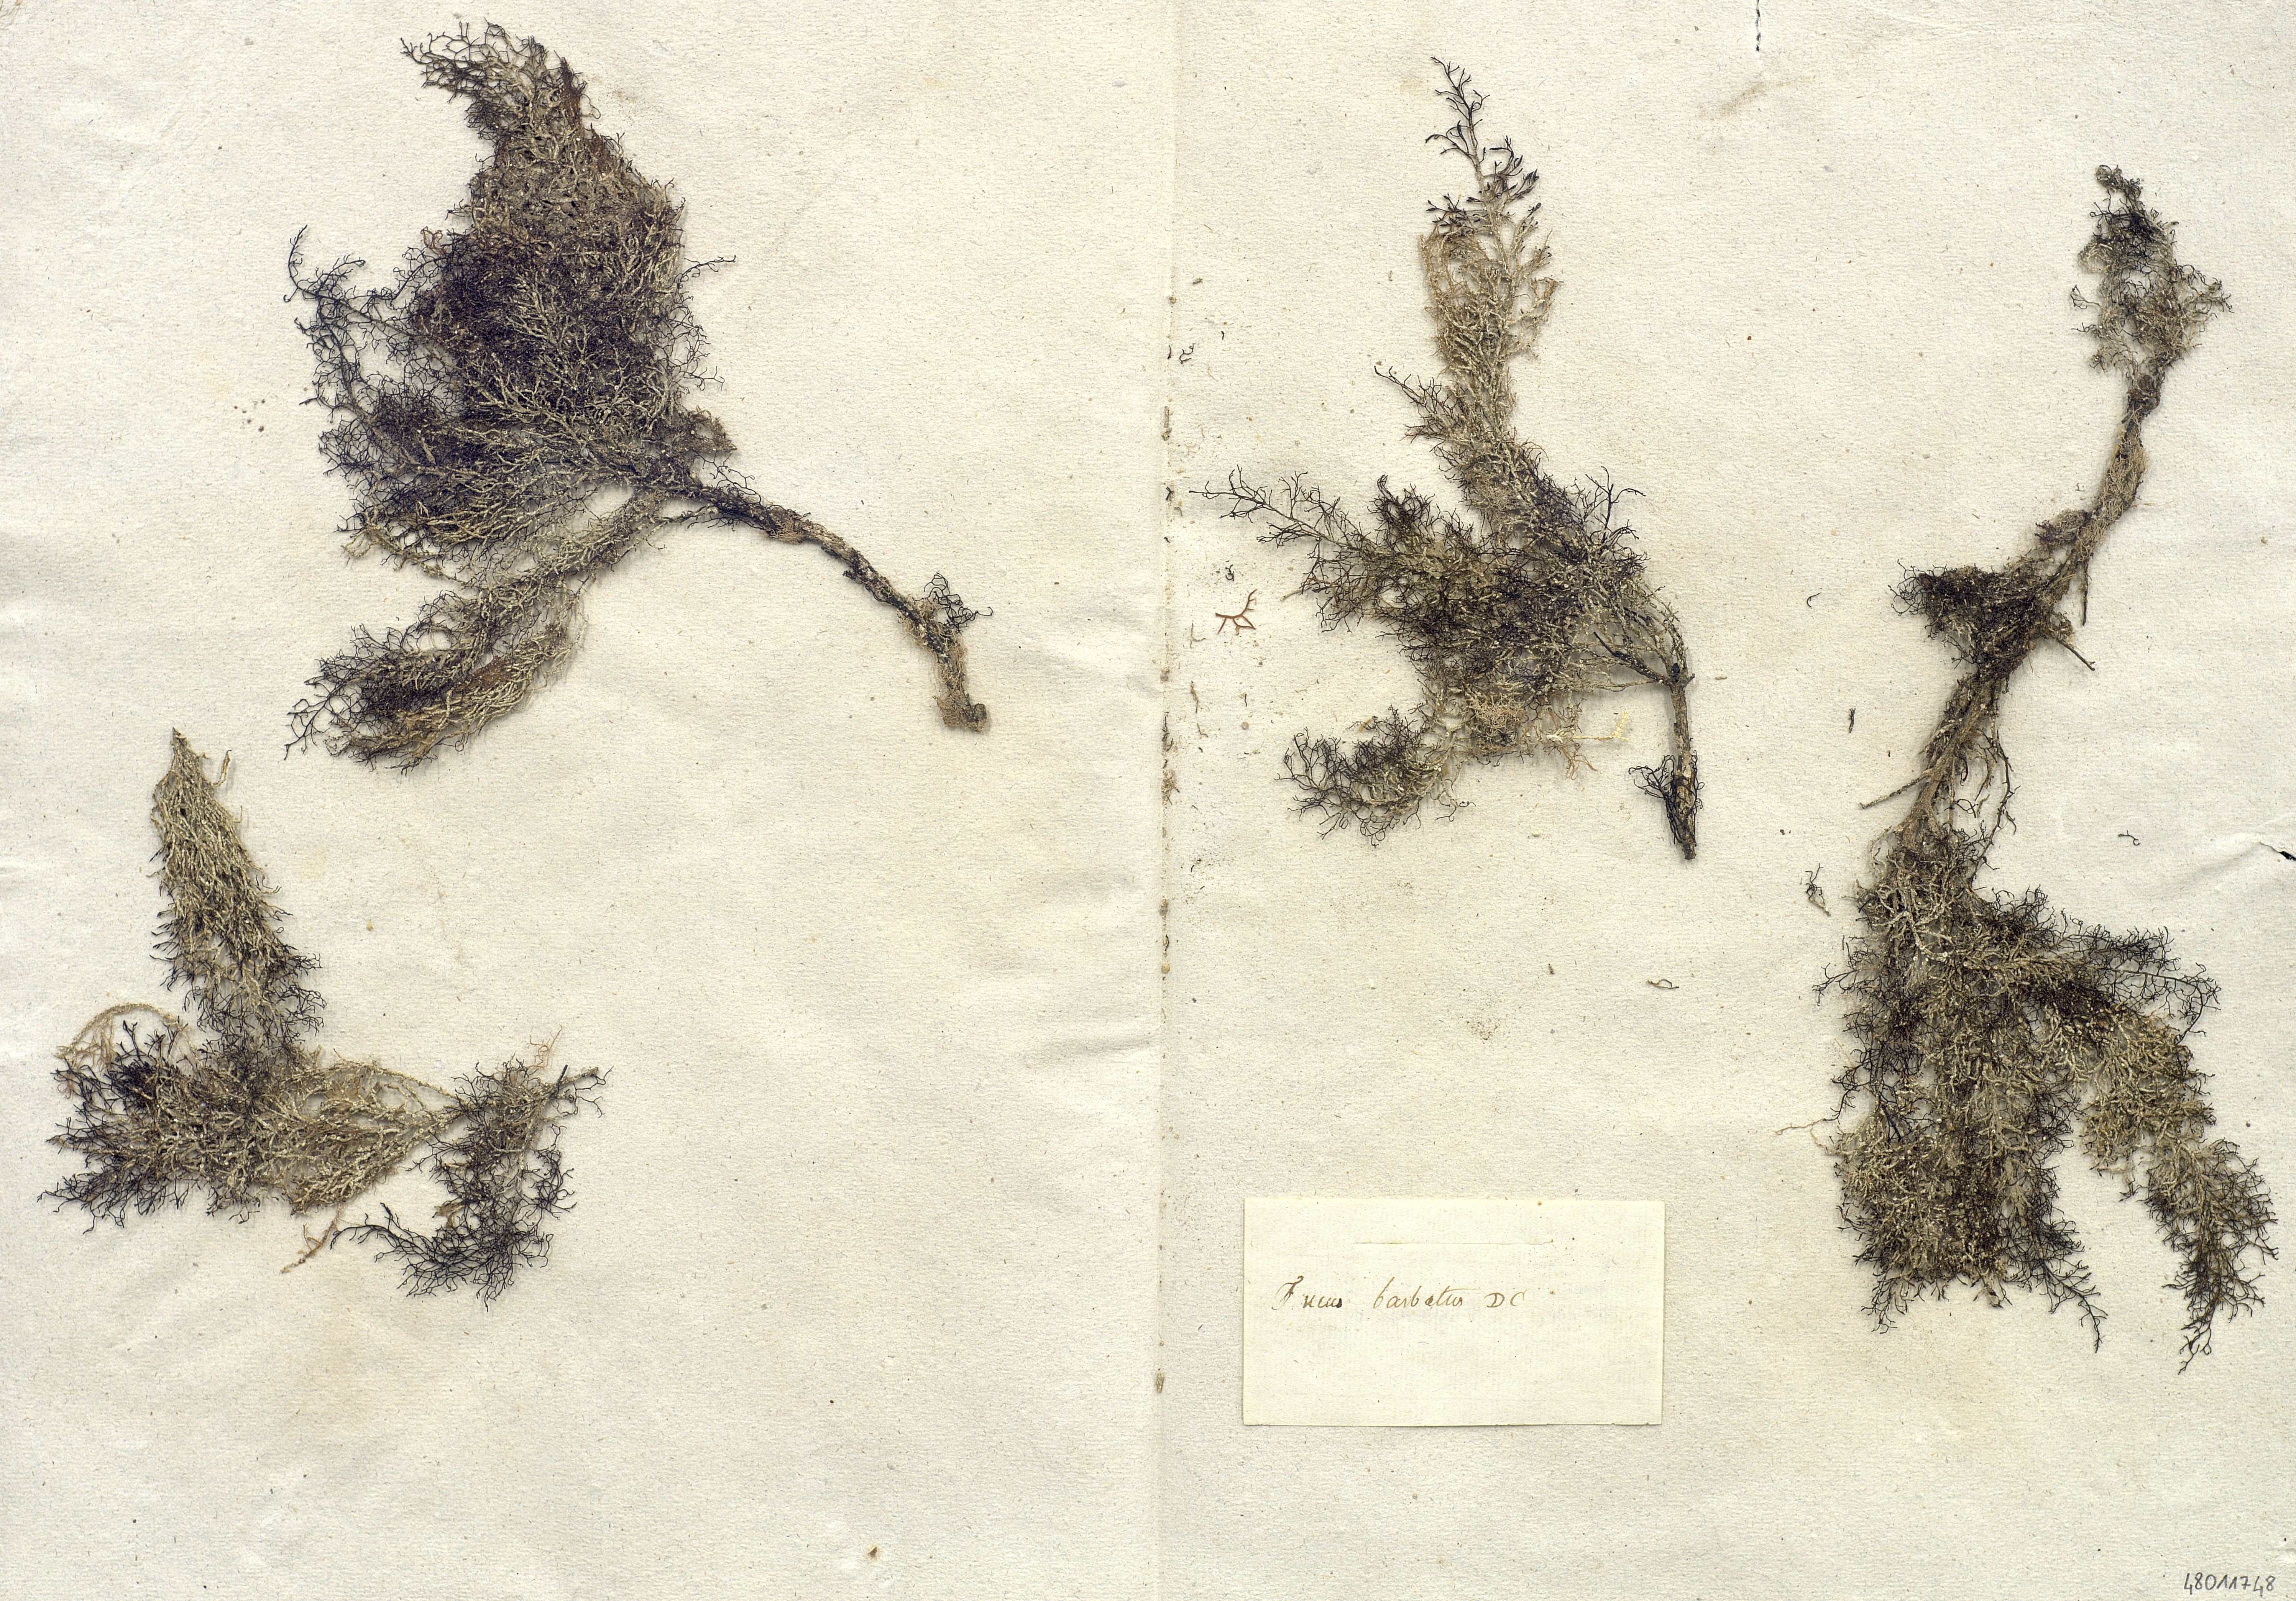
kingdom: Chromista
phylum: Ochrophyta
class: Phaeophyceae
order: Fucales
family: Sargassaceae
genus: Cystoseira
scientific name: Cystoseira
